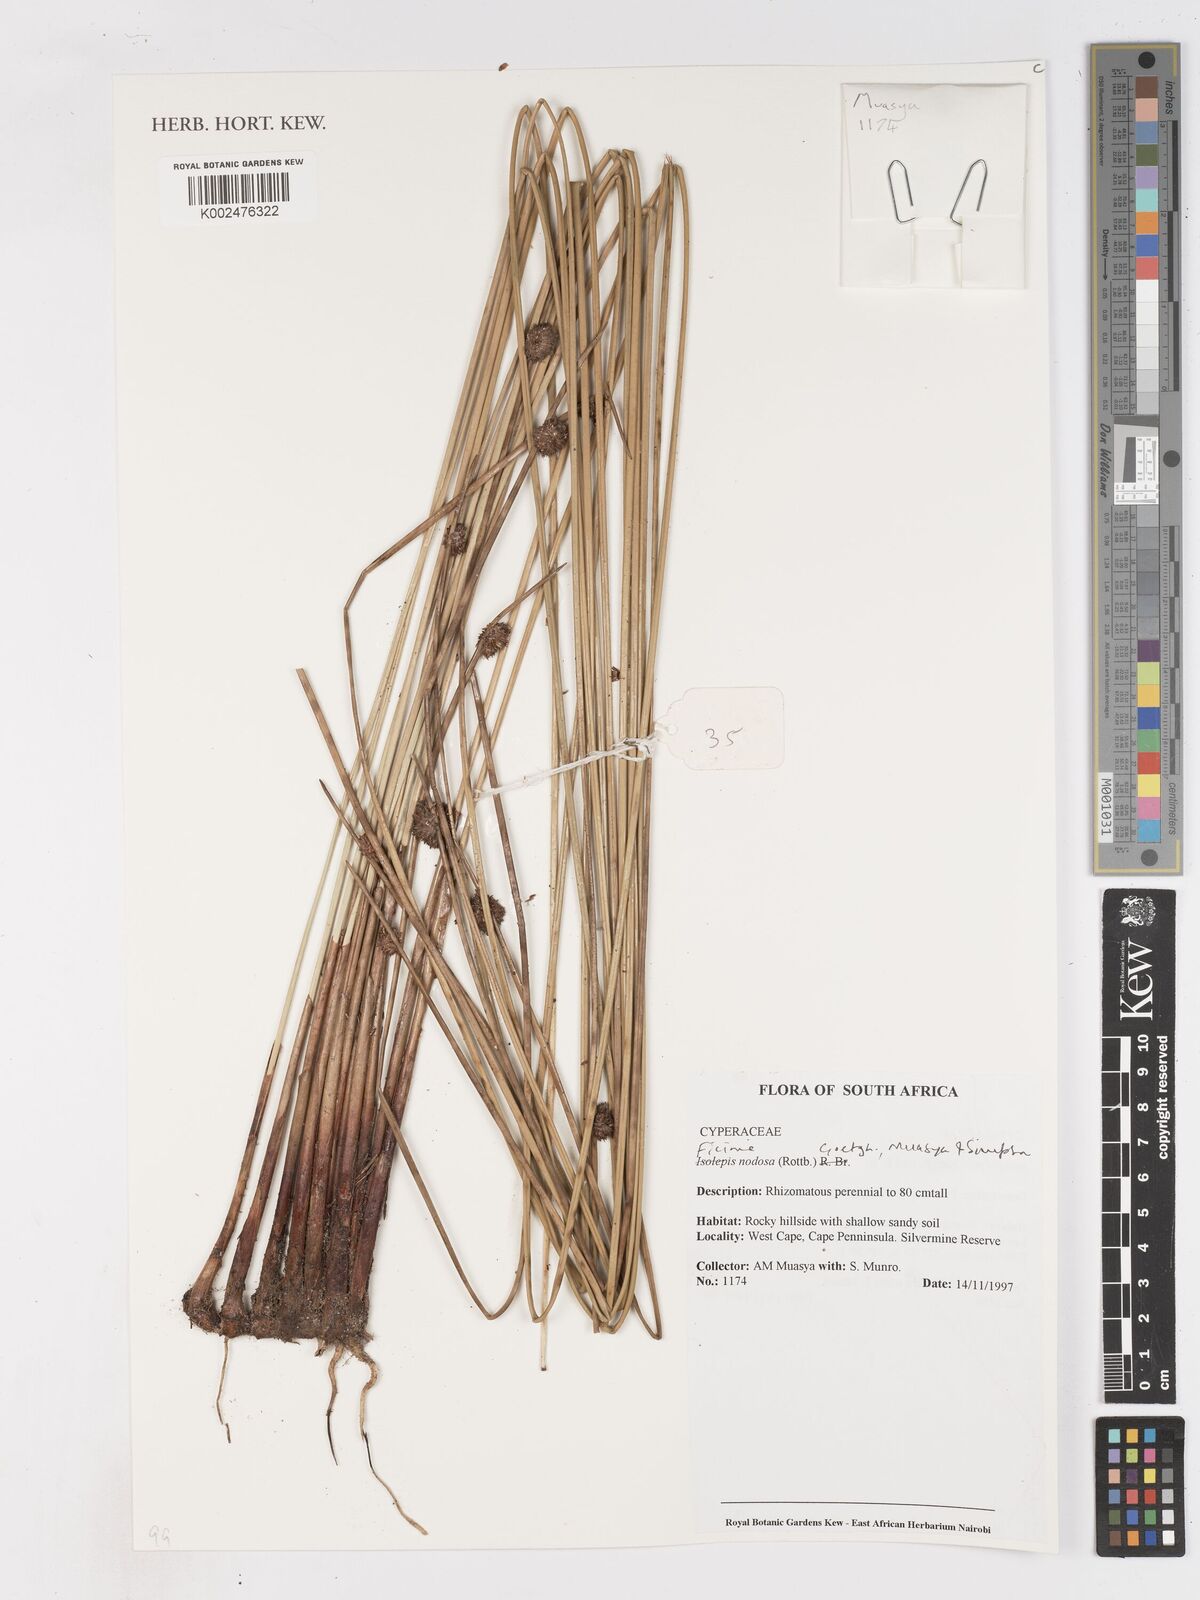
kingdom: Plantae
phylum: Tracheophyta
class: Liliopsida
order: Poales
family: Cyperaceae
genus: Ficinia
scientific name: Ficinia nodosa
